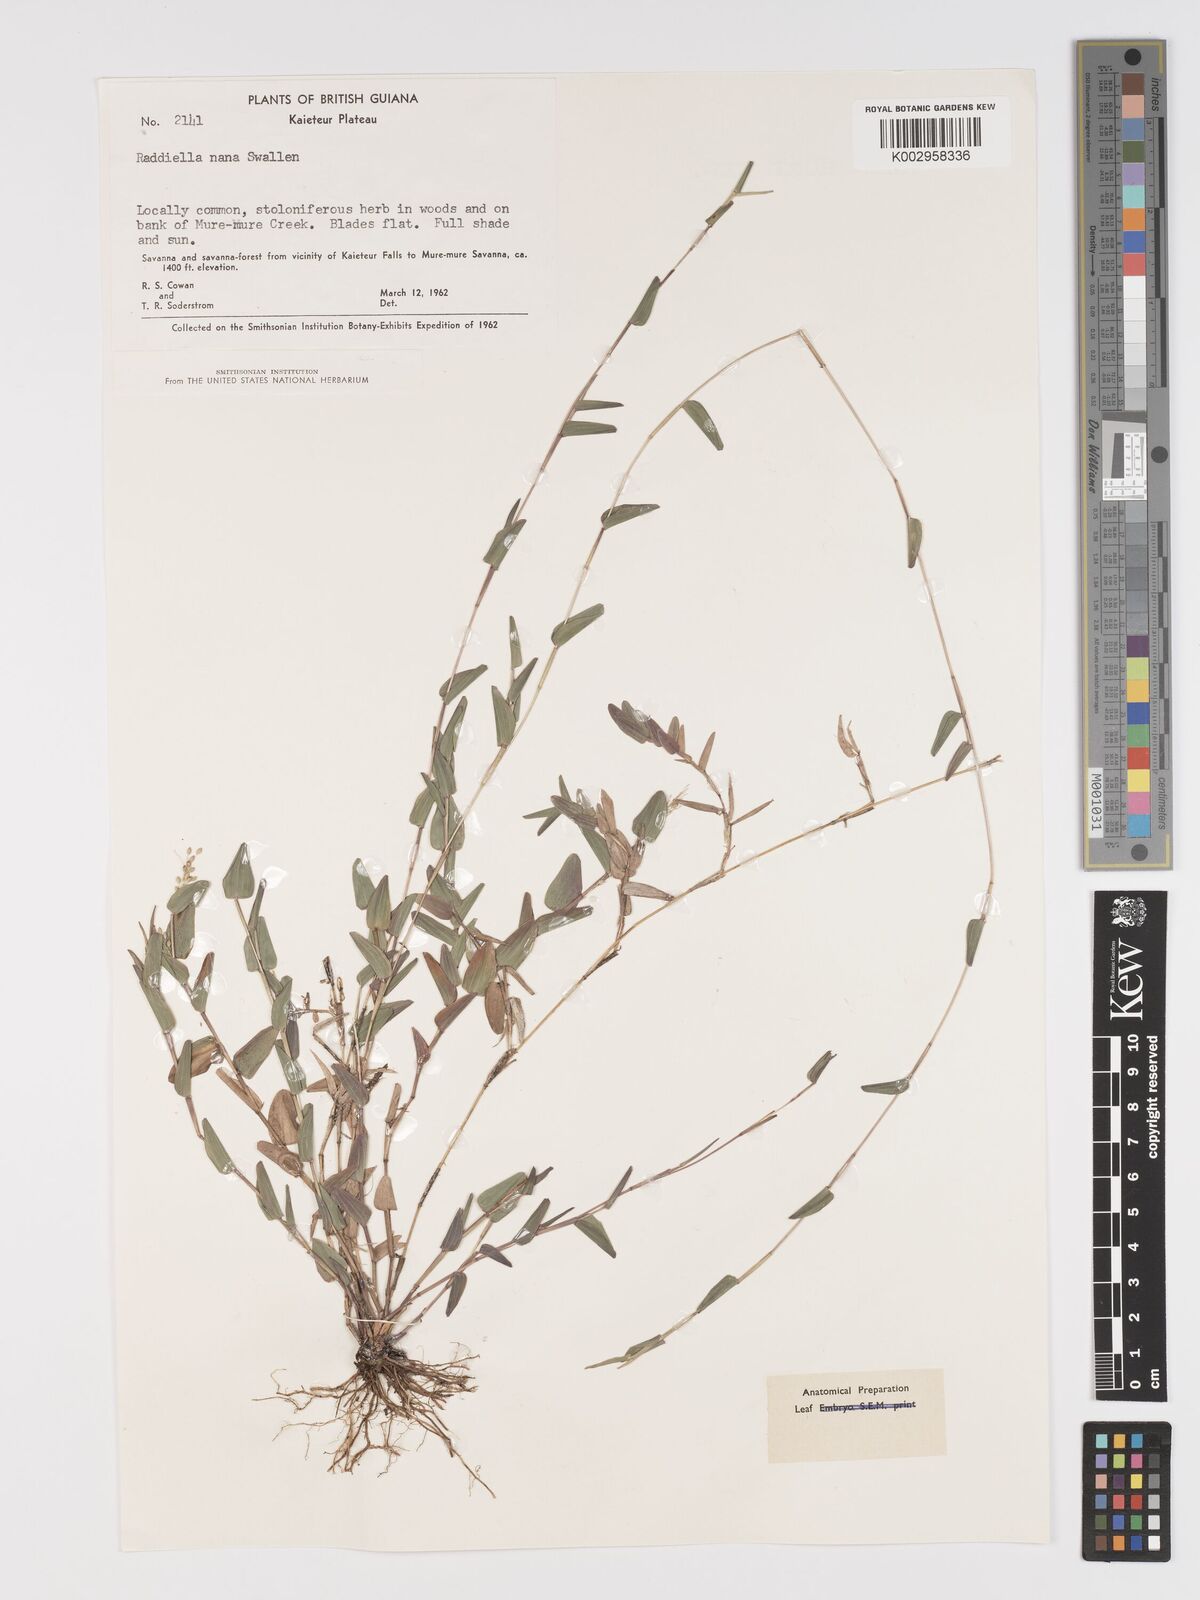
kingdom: Plantae
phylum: Tracheophyta
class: Liliopsida
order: Poales
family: Poaceae
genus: Raddiella
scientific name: Raddiella esenbeckii
